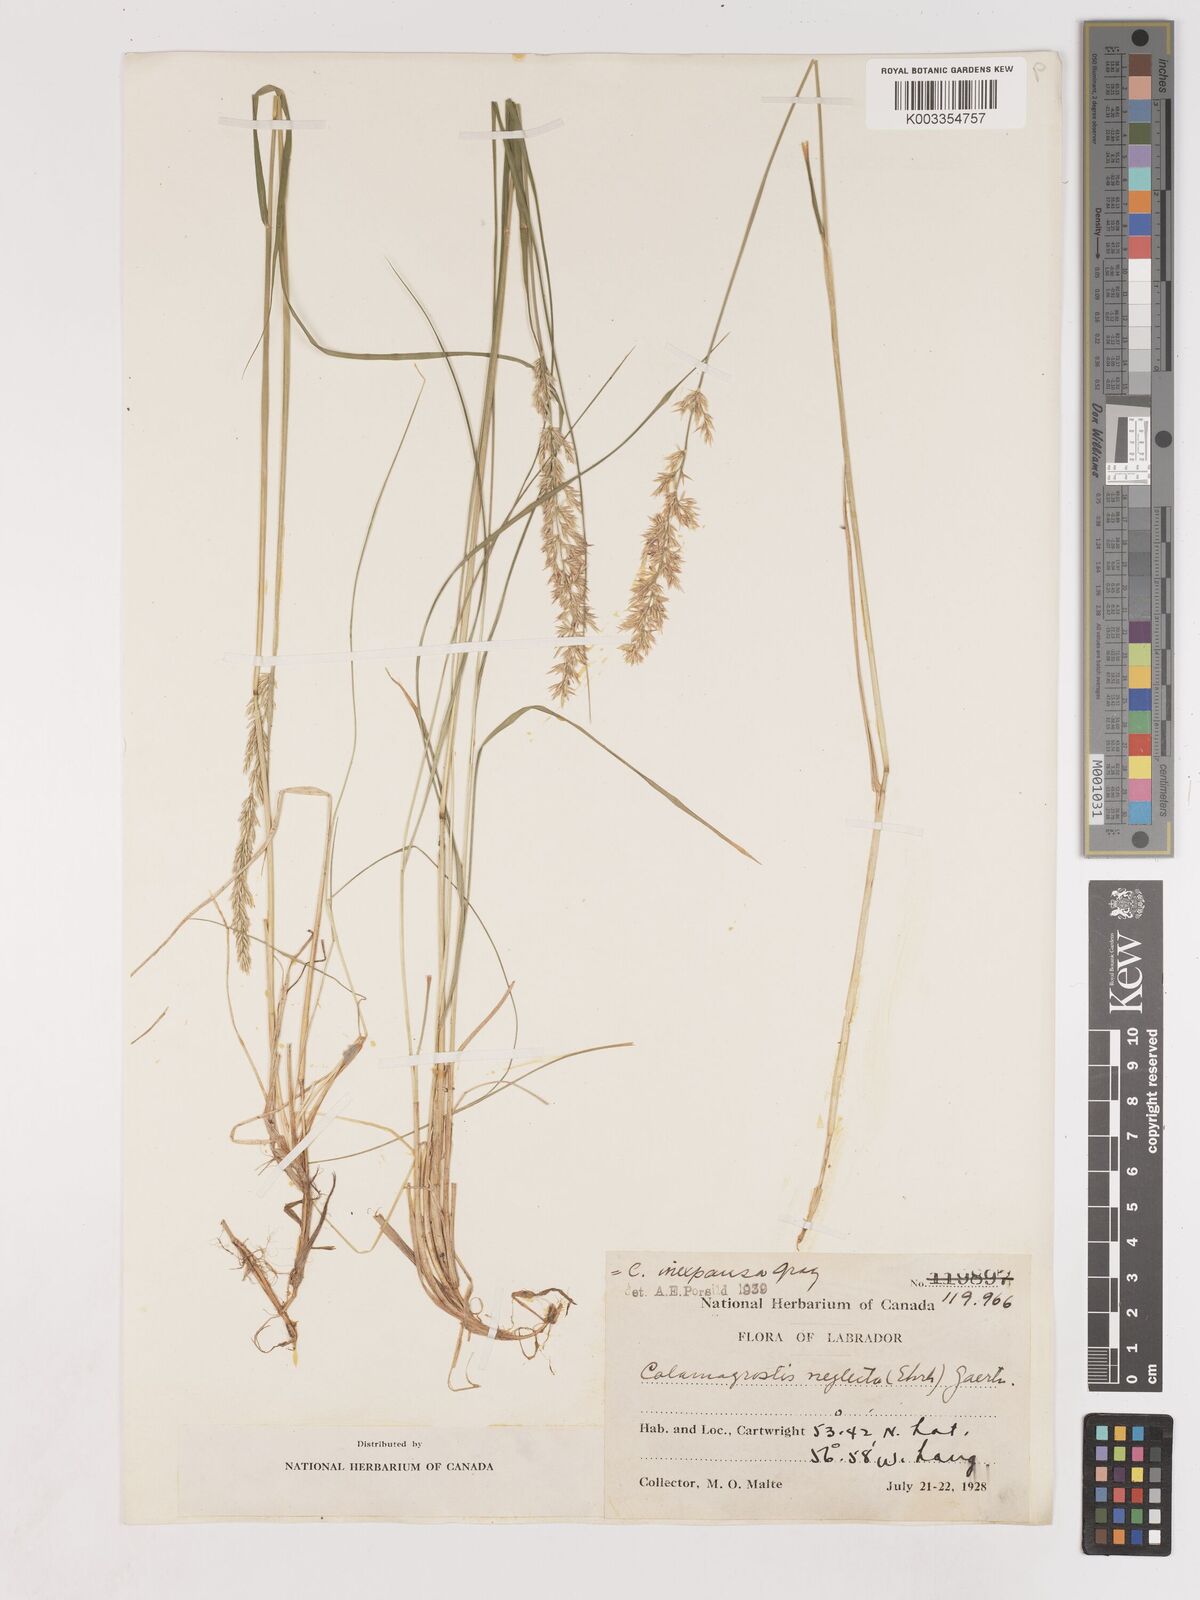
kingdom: Plantae
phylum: Tracheophyta
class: Liliopsida
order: Poales
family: Poaceae
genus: Cinnagrostis
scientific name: Cinnagrostis recta
